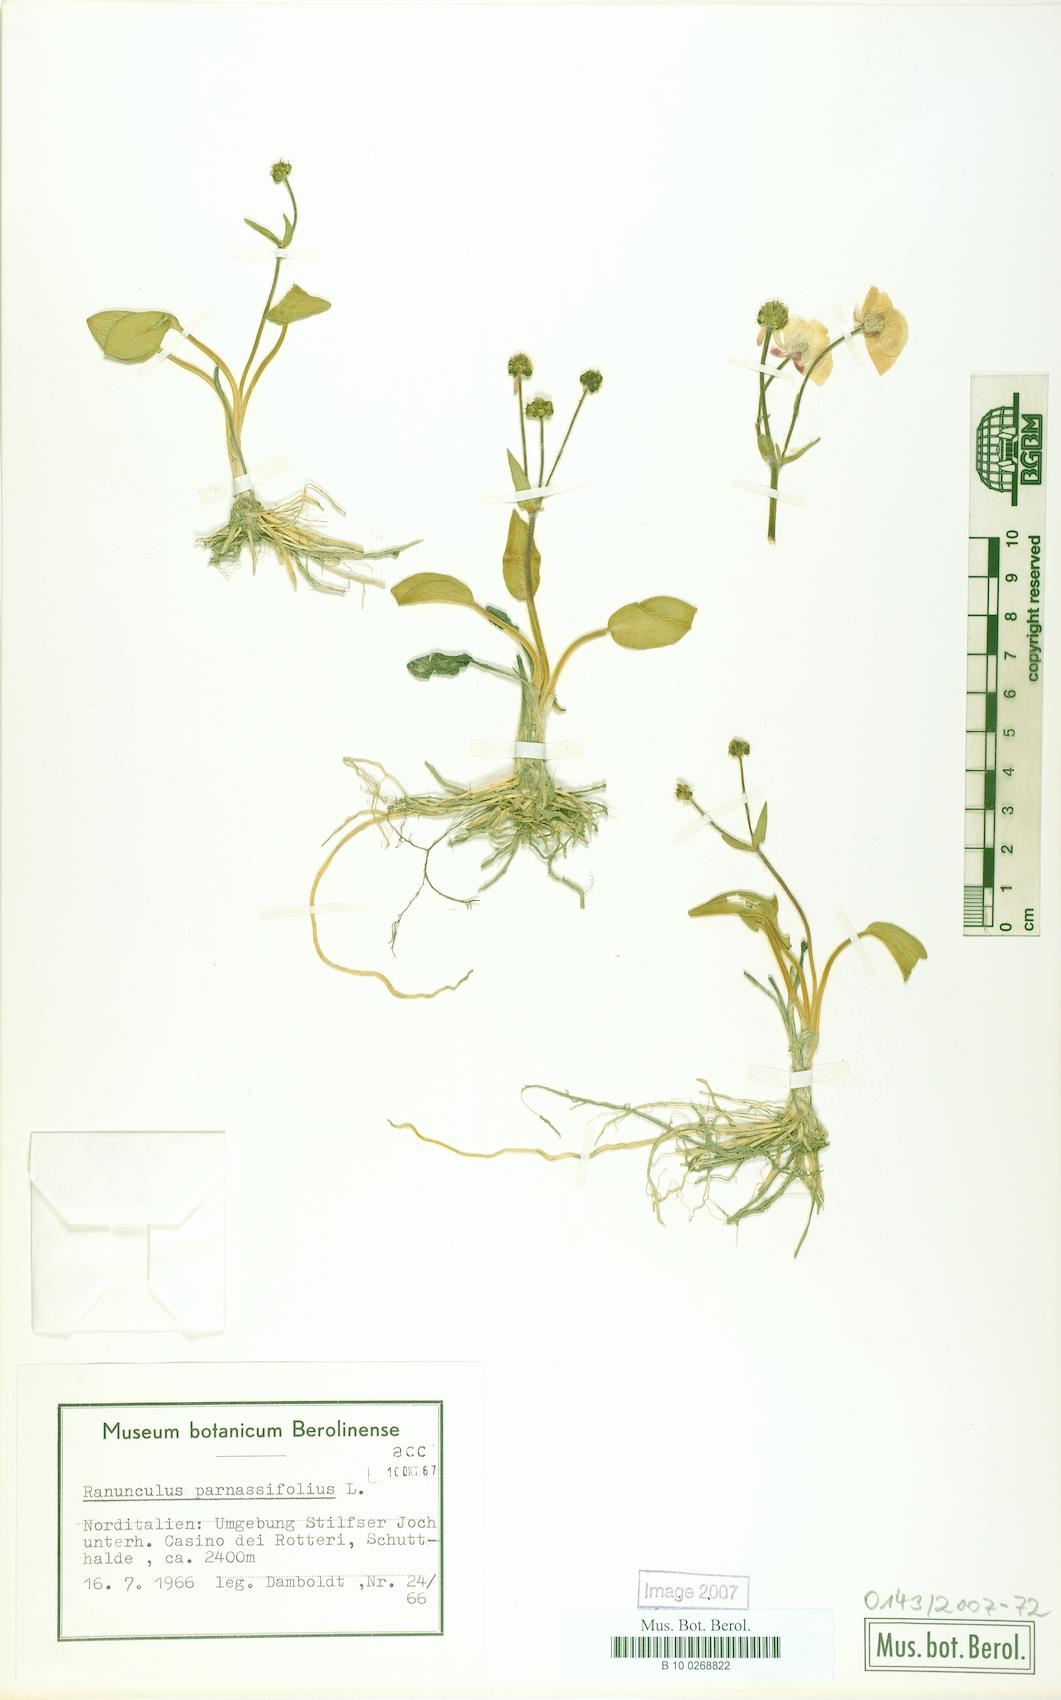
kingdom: Plantae
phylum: Tracheophyta
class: Magnoliopsida
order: Ranunculales
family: Ranunculaceae
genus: Ranunculus
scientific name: Ranunculus parnassiifolius
